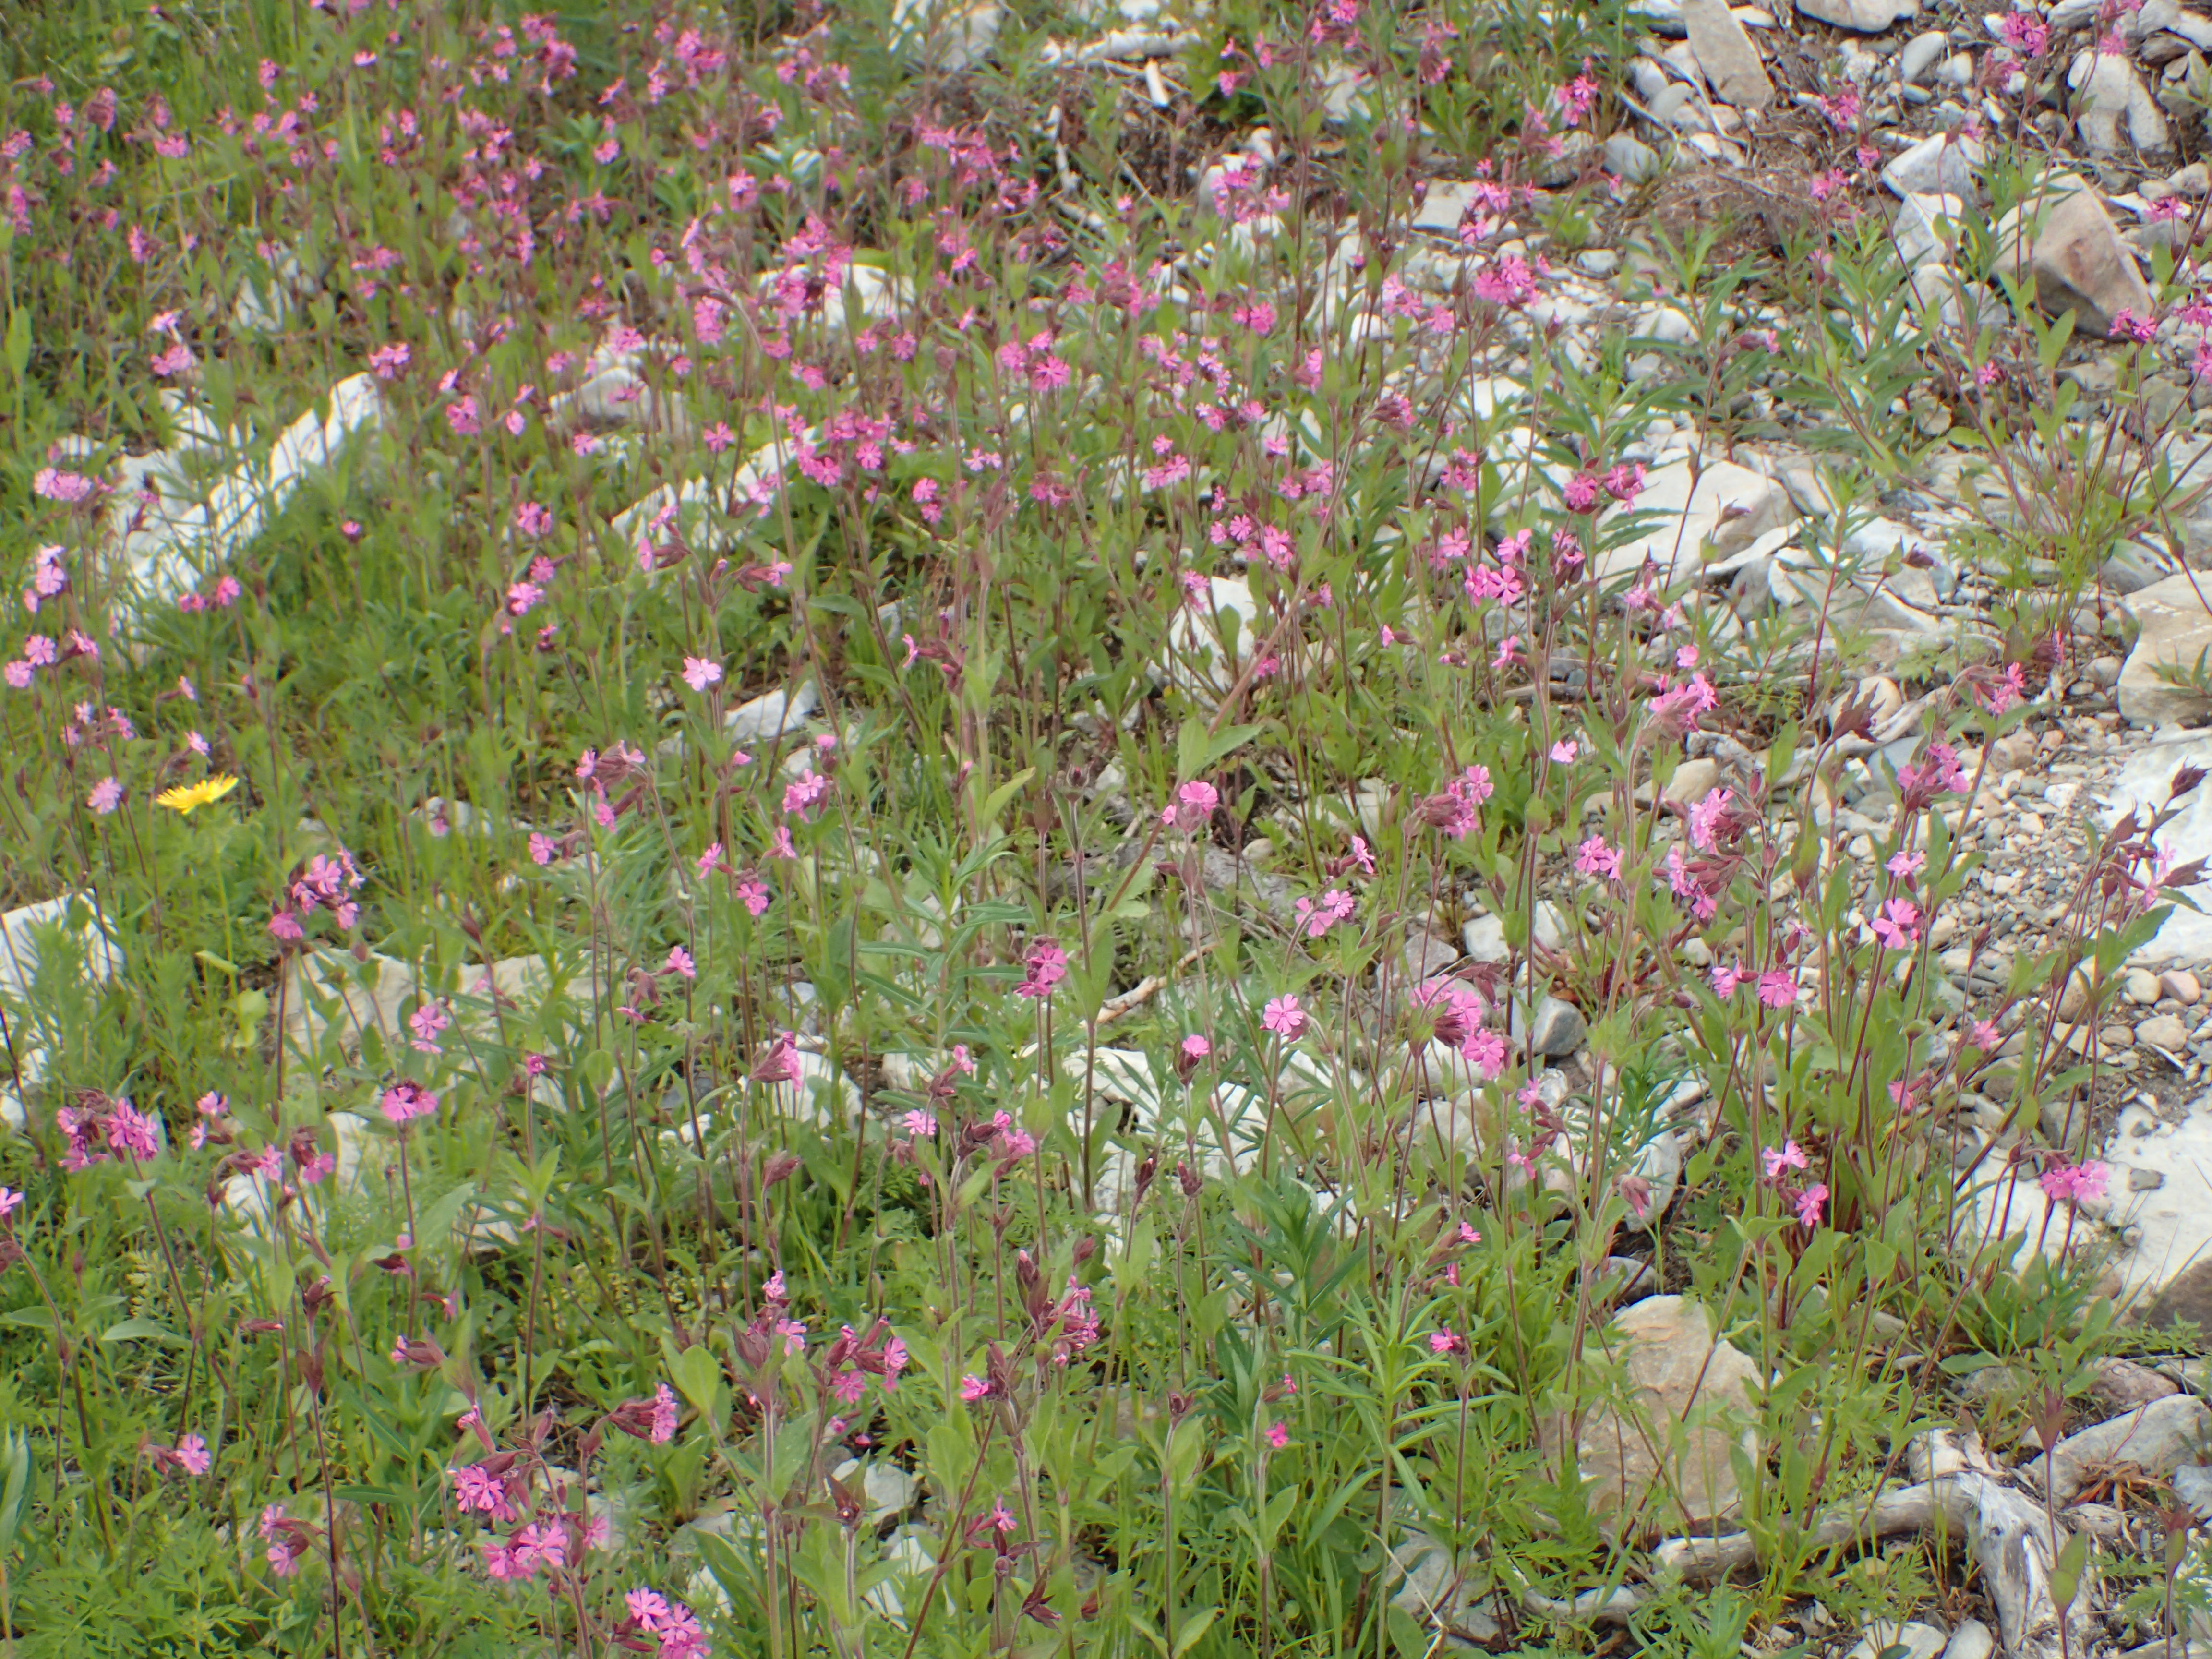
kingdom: Plantae
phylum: Tracheophyta
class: Magnoliopsida
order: Caryophyllales
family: Caryophyllaceae
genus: Silene
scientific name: Silene dioica
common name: Red campion
